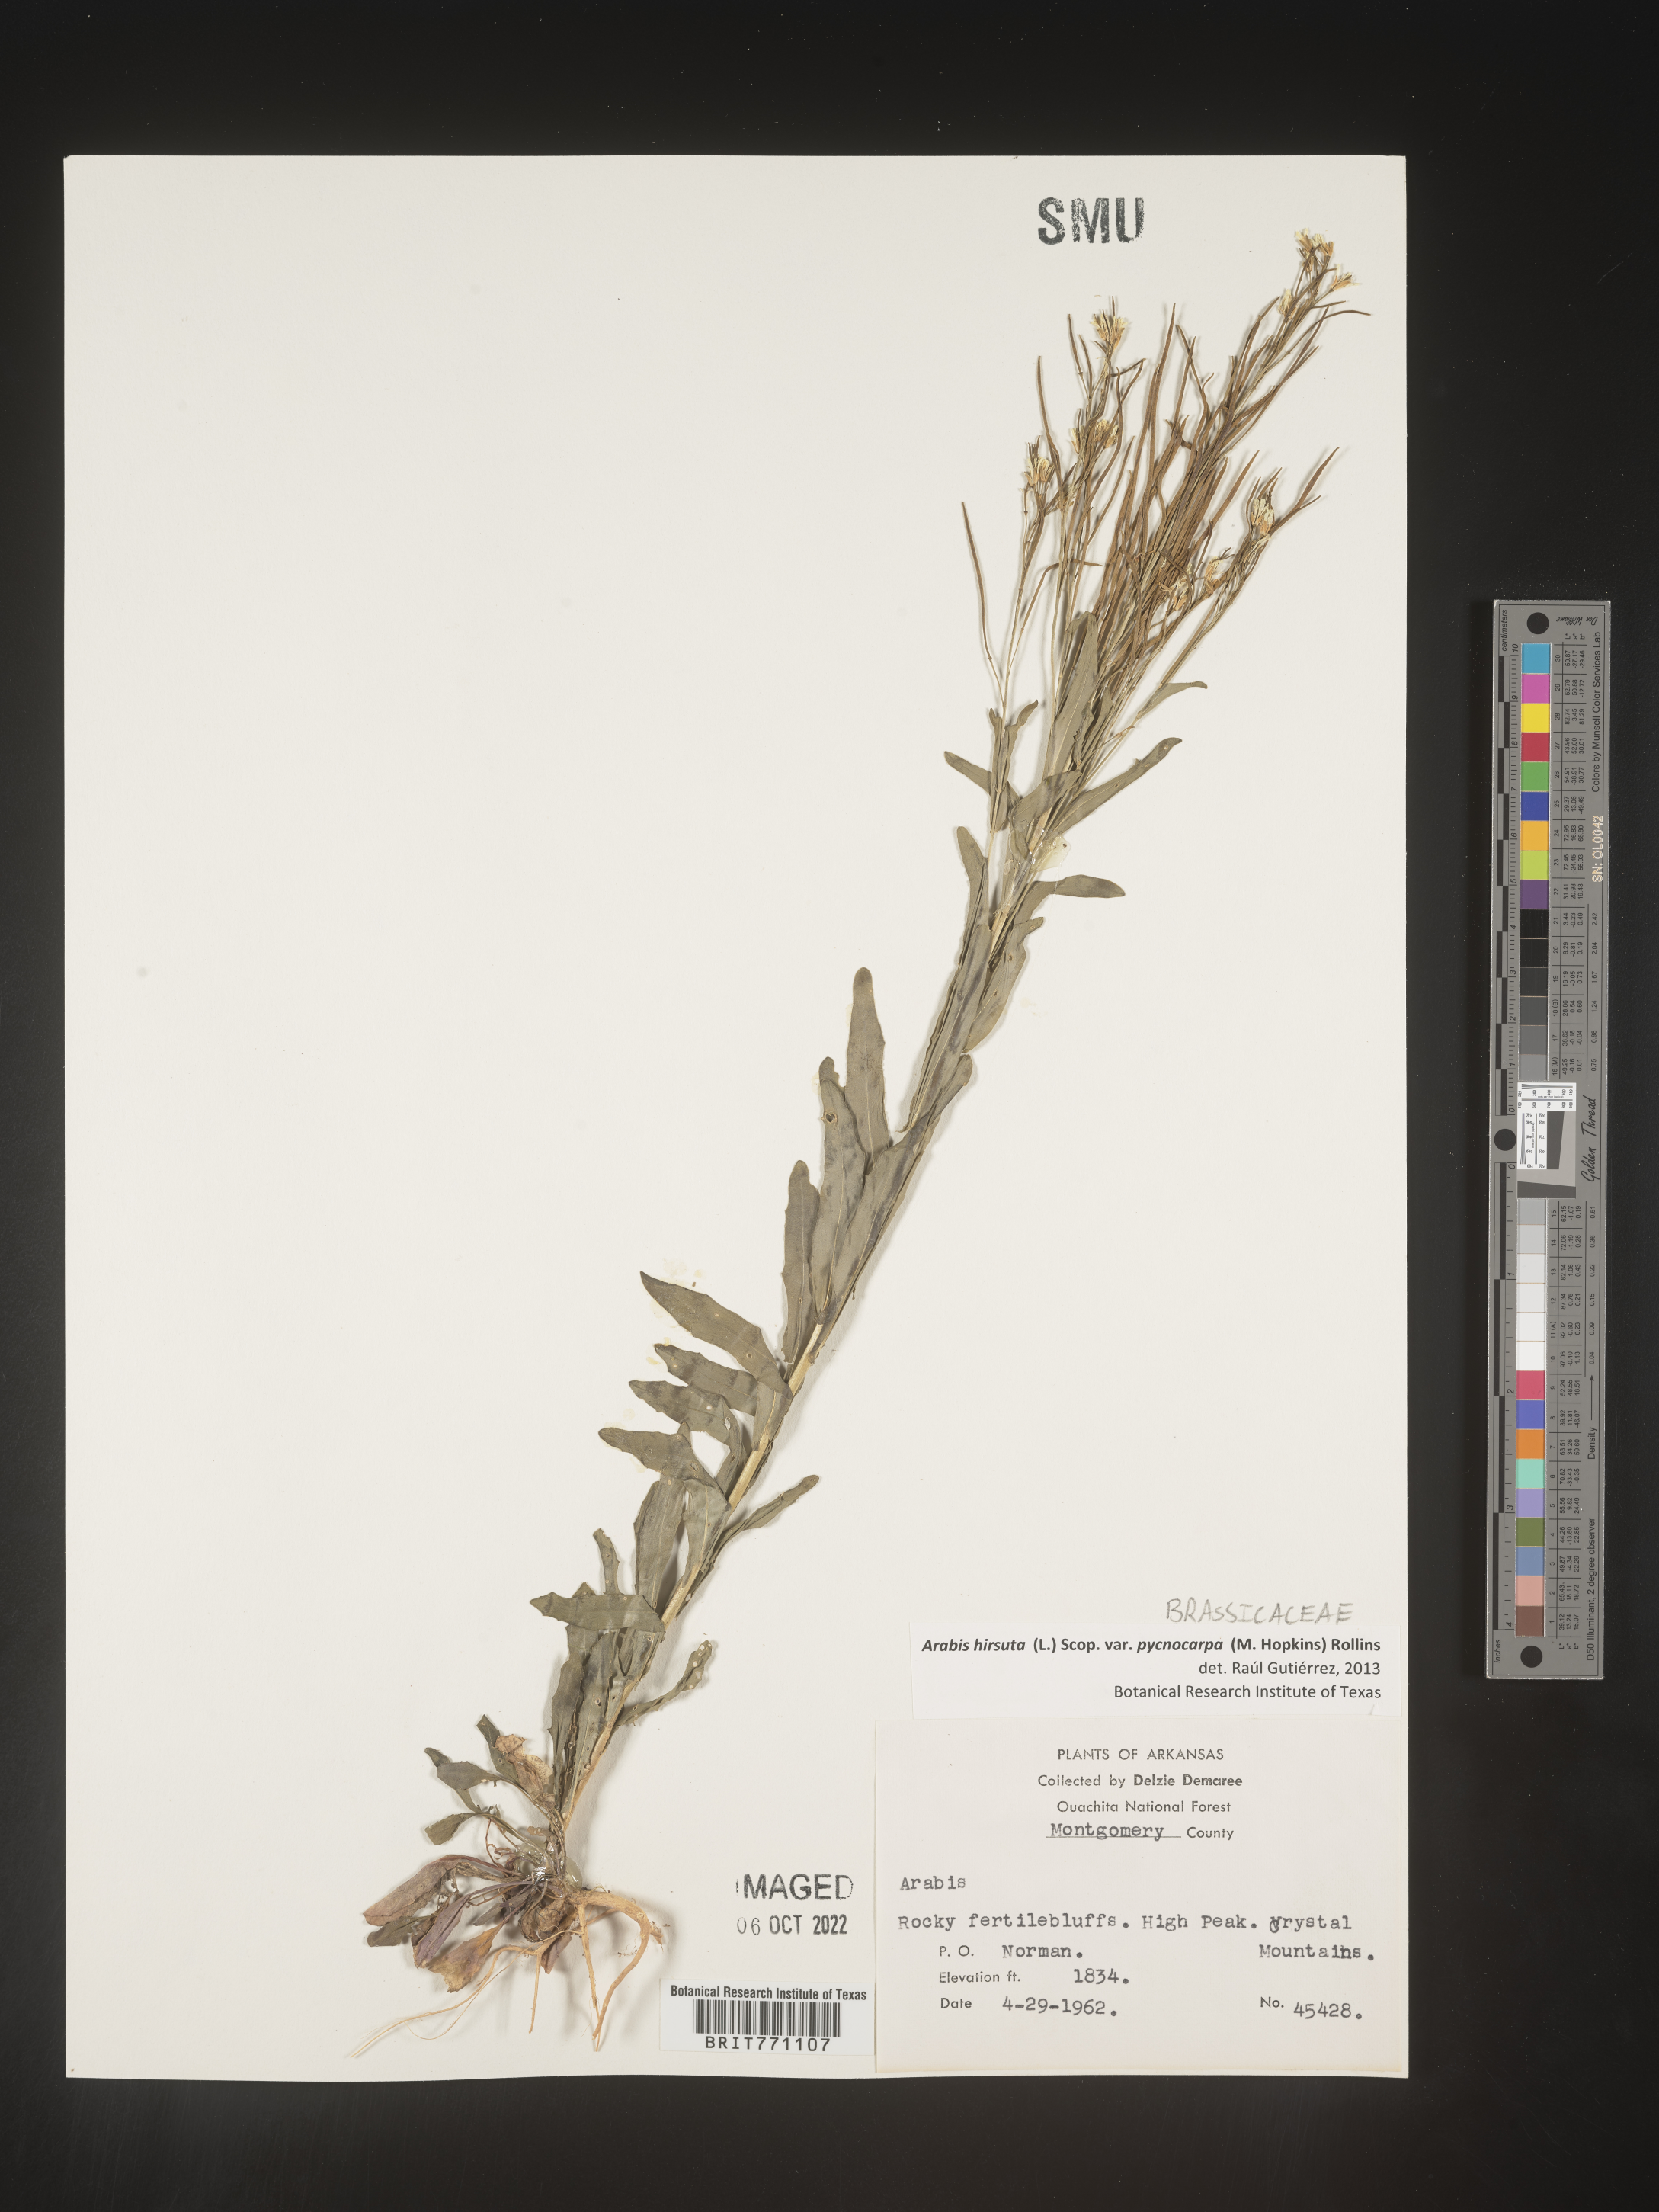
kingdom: Plantae
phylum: Tracheophyta
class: Magnoliopsida
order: Brassicales
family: Brassicaceae
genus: Arabis
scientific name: Arabis hirsuta
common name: Hairy rock-cress
